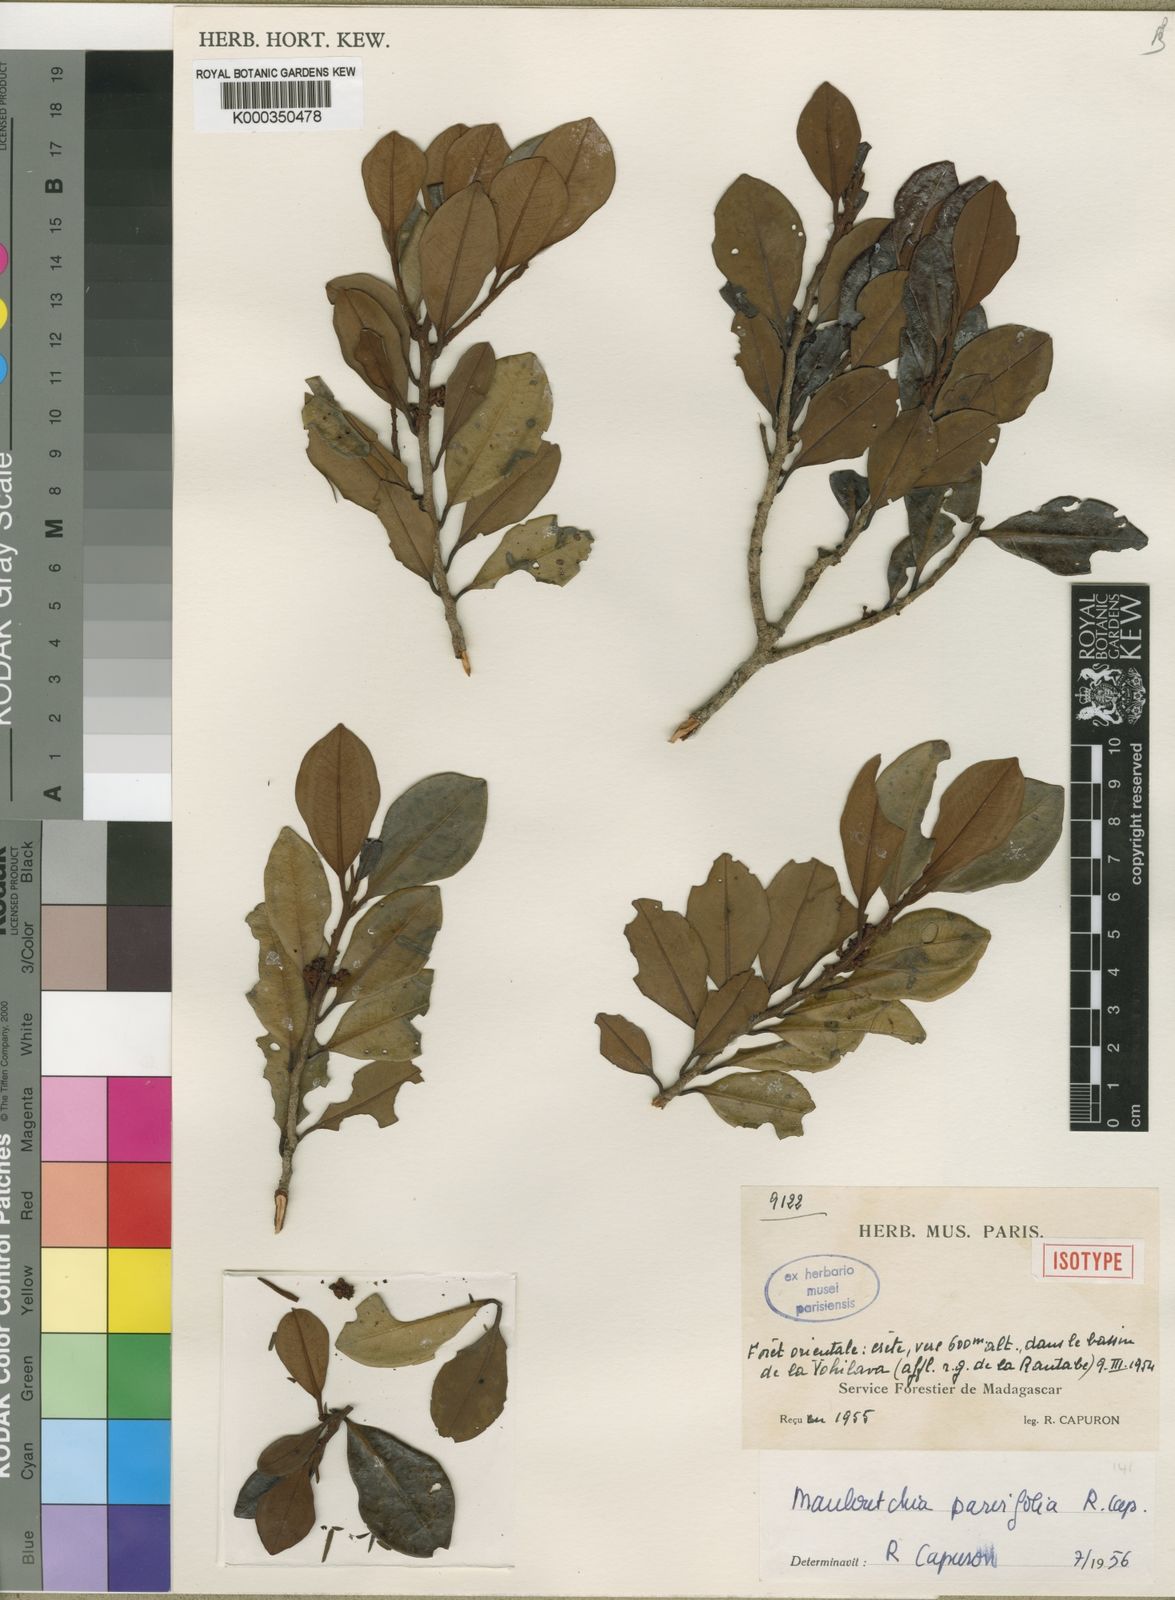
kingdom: Plantae
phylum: Tracheophyta
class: Magnoliopsida
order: Magnoliales
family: Myristicaceae
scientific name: Myristicaceae
